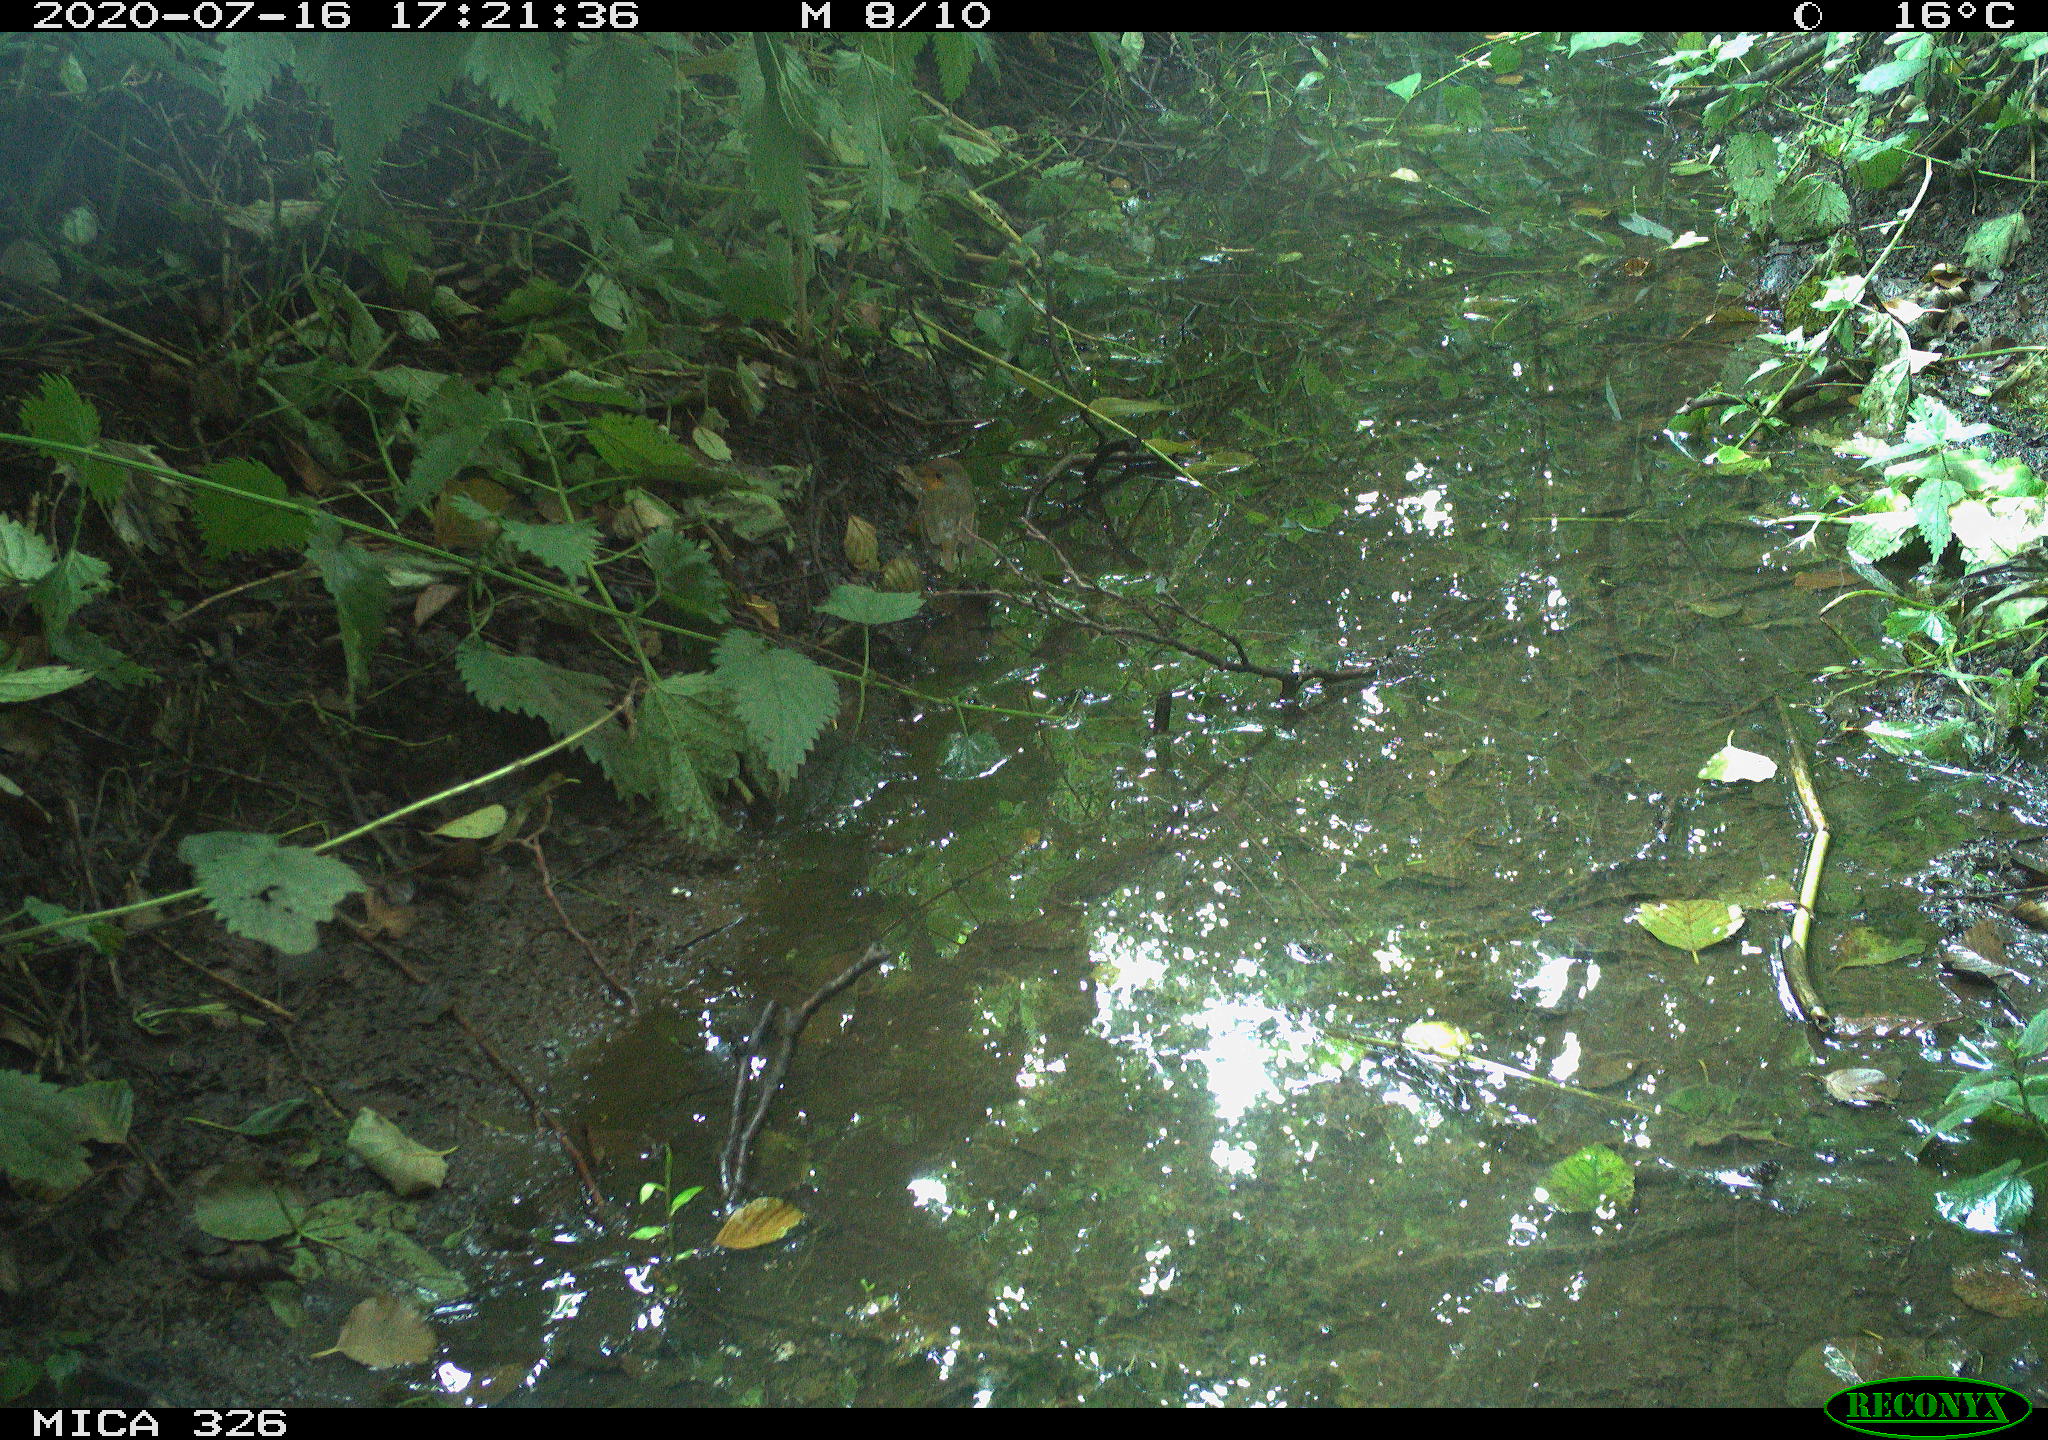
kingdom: Animalia
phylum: Chordata
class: Aves
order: Passeriformes
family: Muscicapidae
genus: Erithacus
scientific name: Erithacus rubecula
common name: European robin
